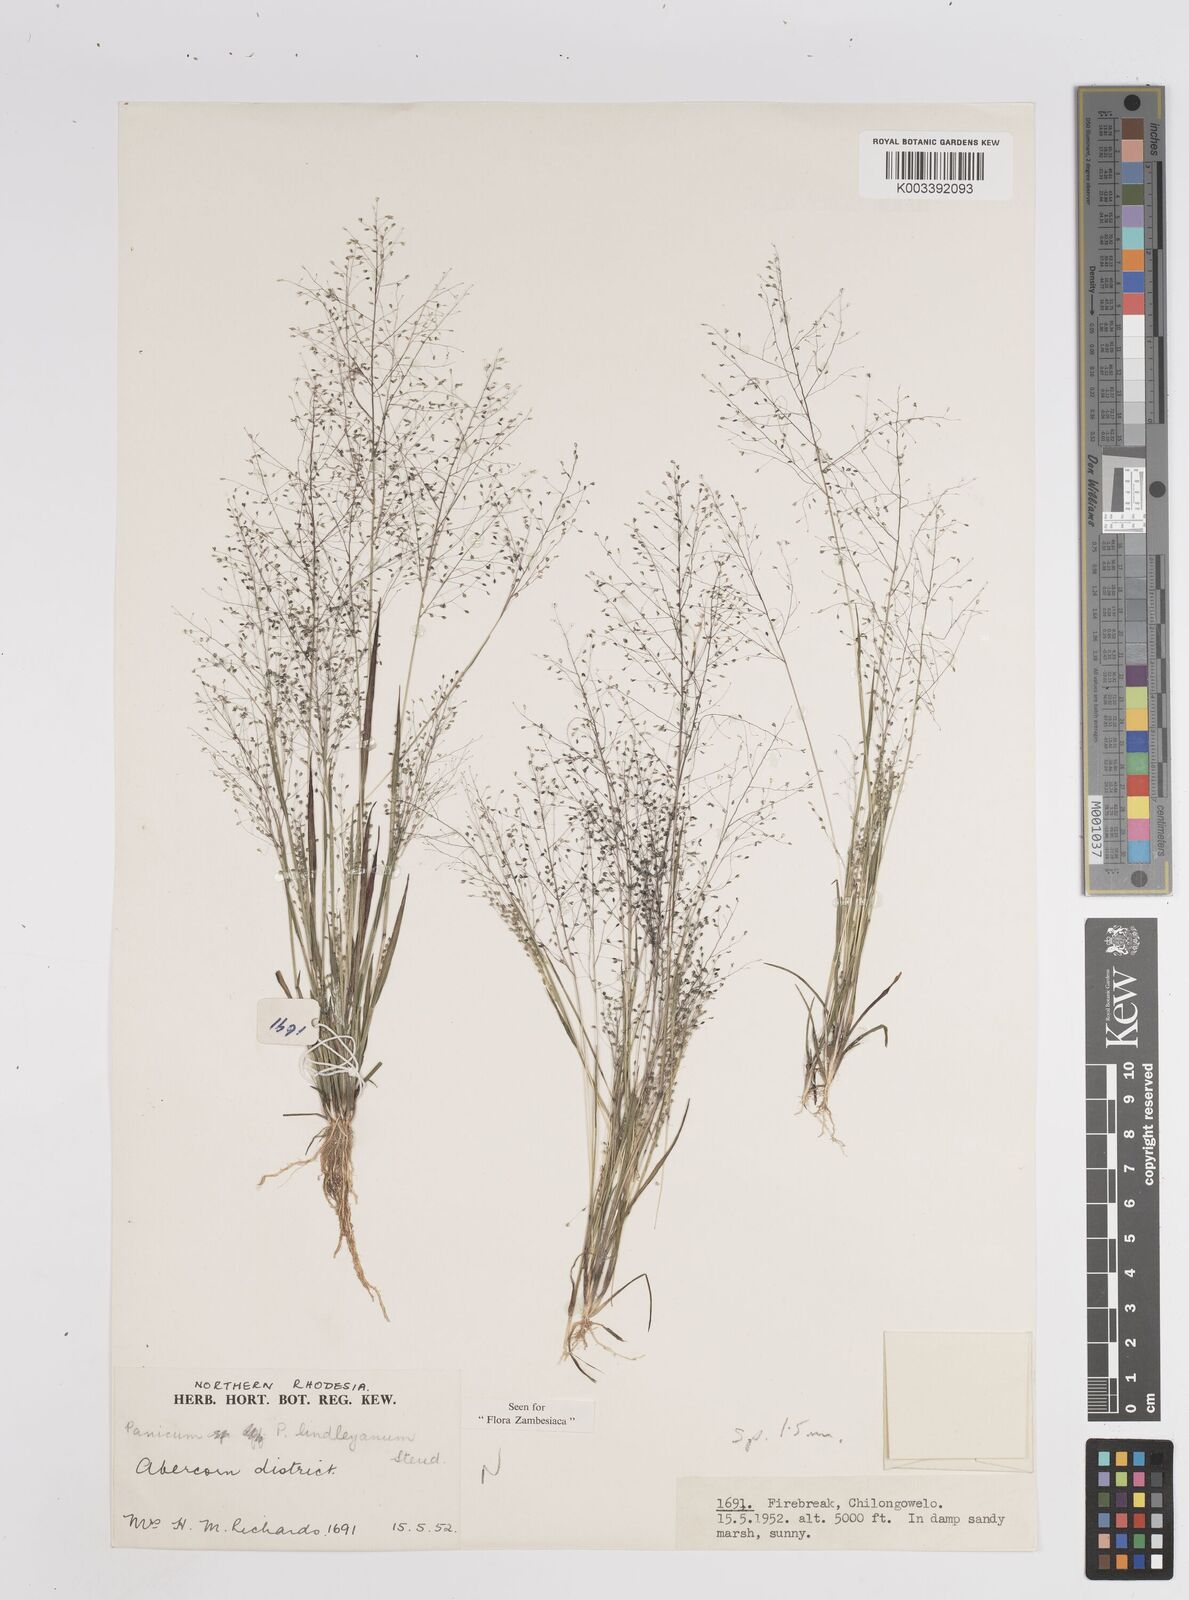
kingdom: Plantae
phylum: Tracheophyta
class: Liliopsida
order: Poales
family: Poaceae
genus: Trichanthecium
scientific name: Trichanthecium tenellum
